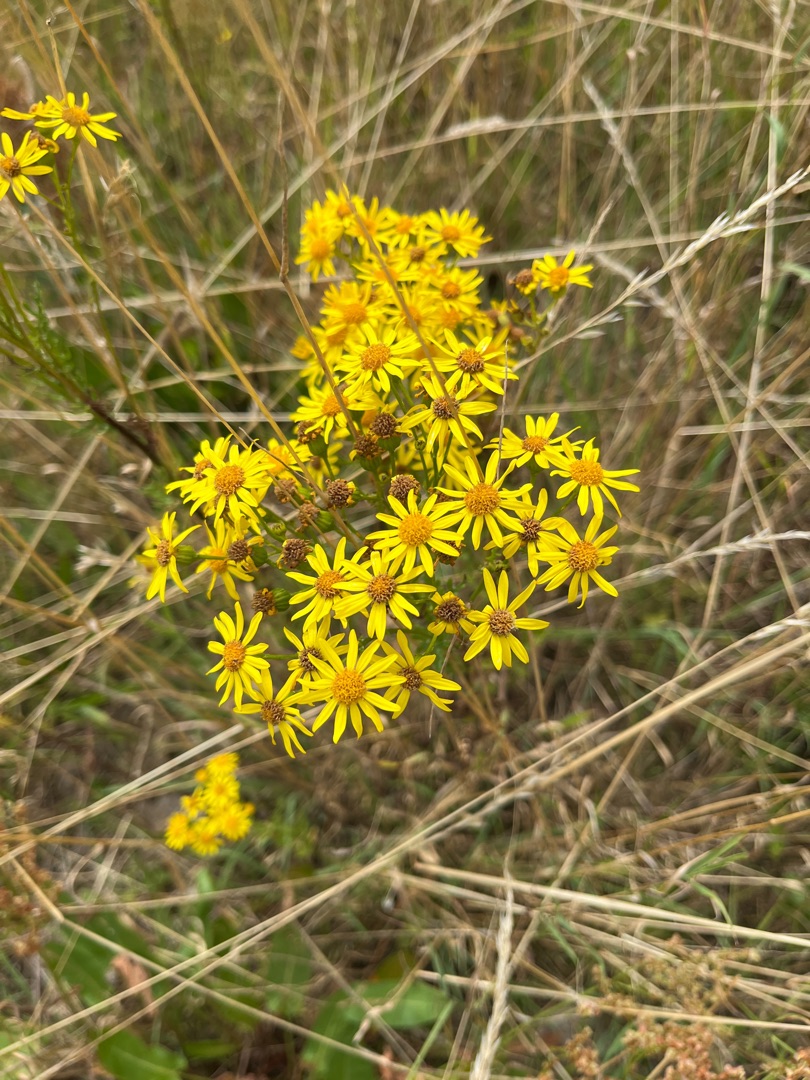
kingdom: Plantae
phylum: Tracheophyta
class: Magnoliopsida
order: Asterales
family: Asteraceae
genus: Jacobaea
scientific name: Jacobaea vulgaris
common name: Eng-brandbæger
